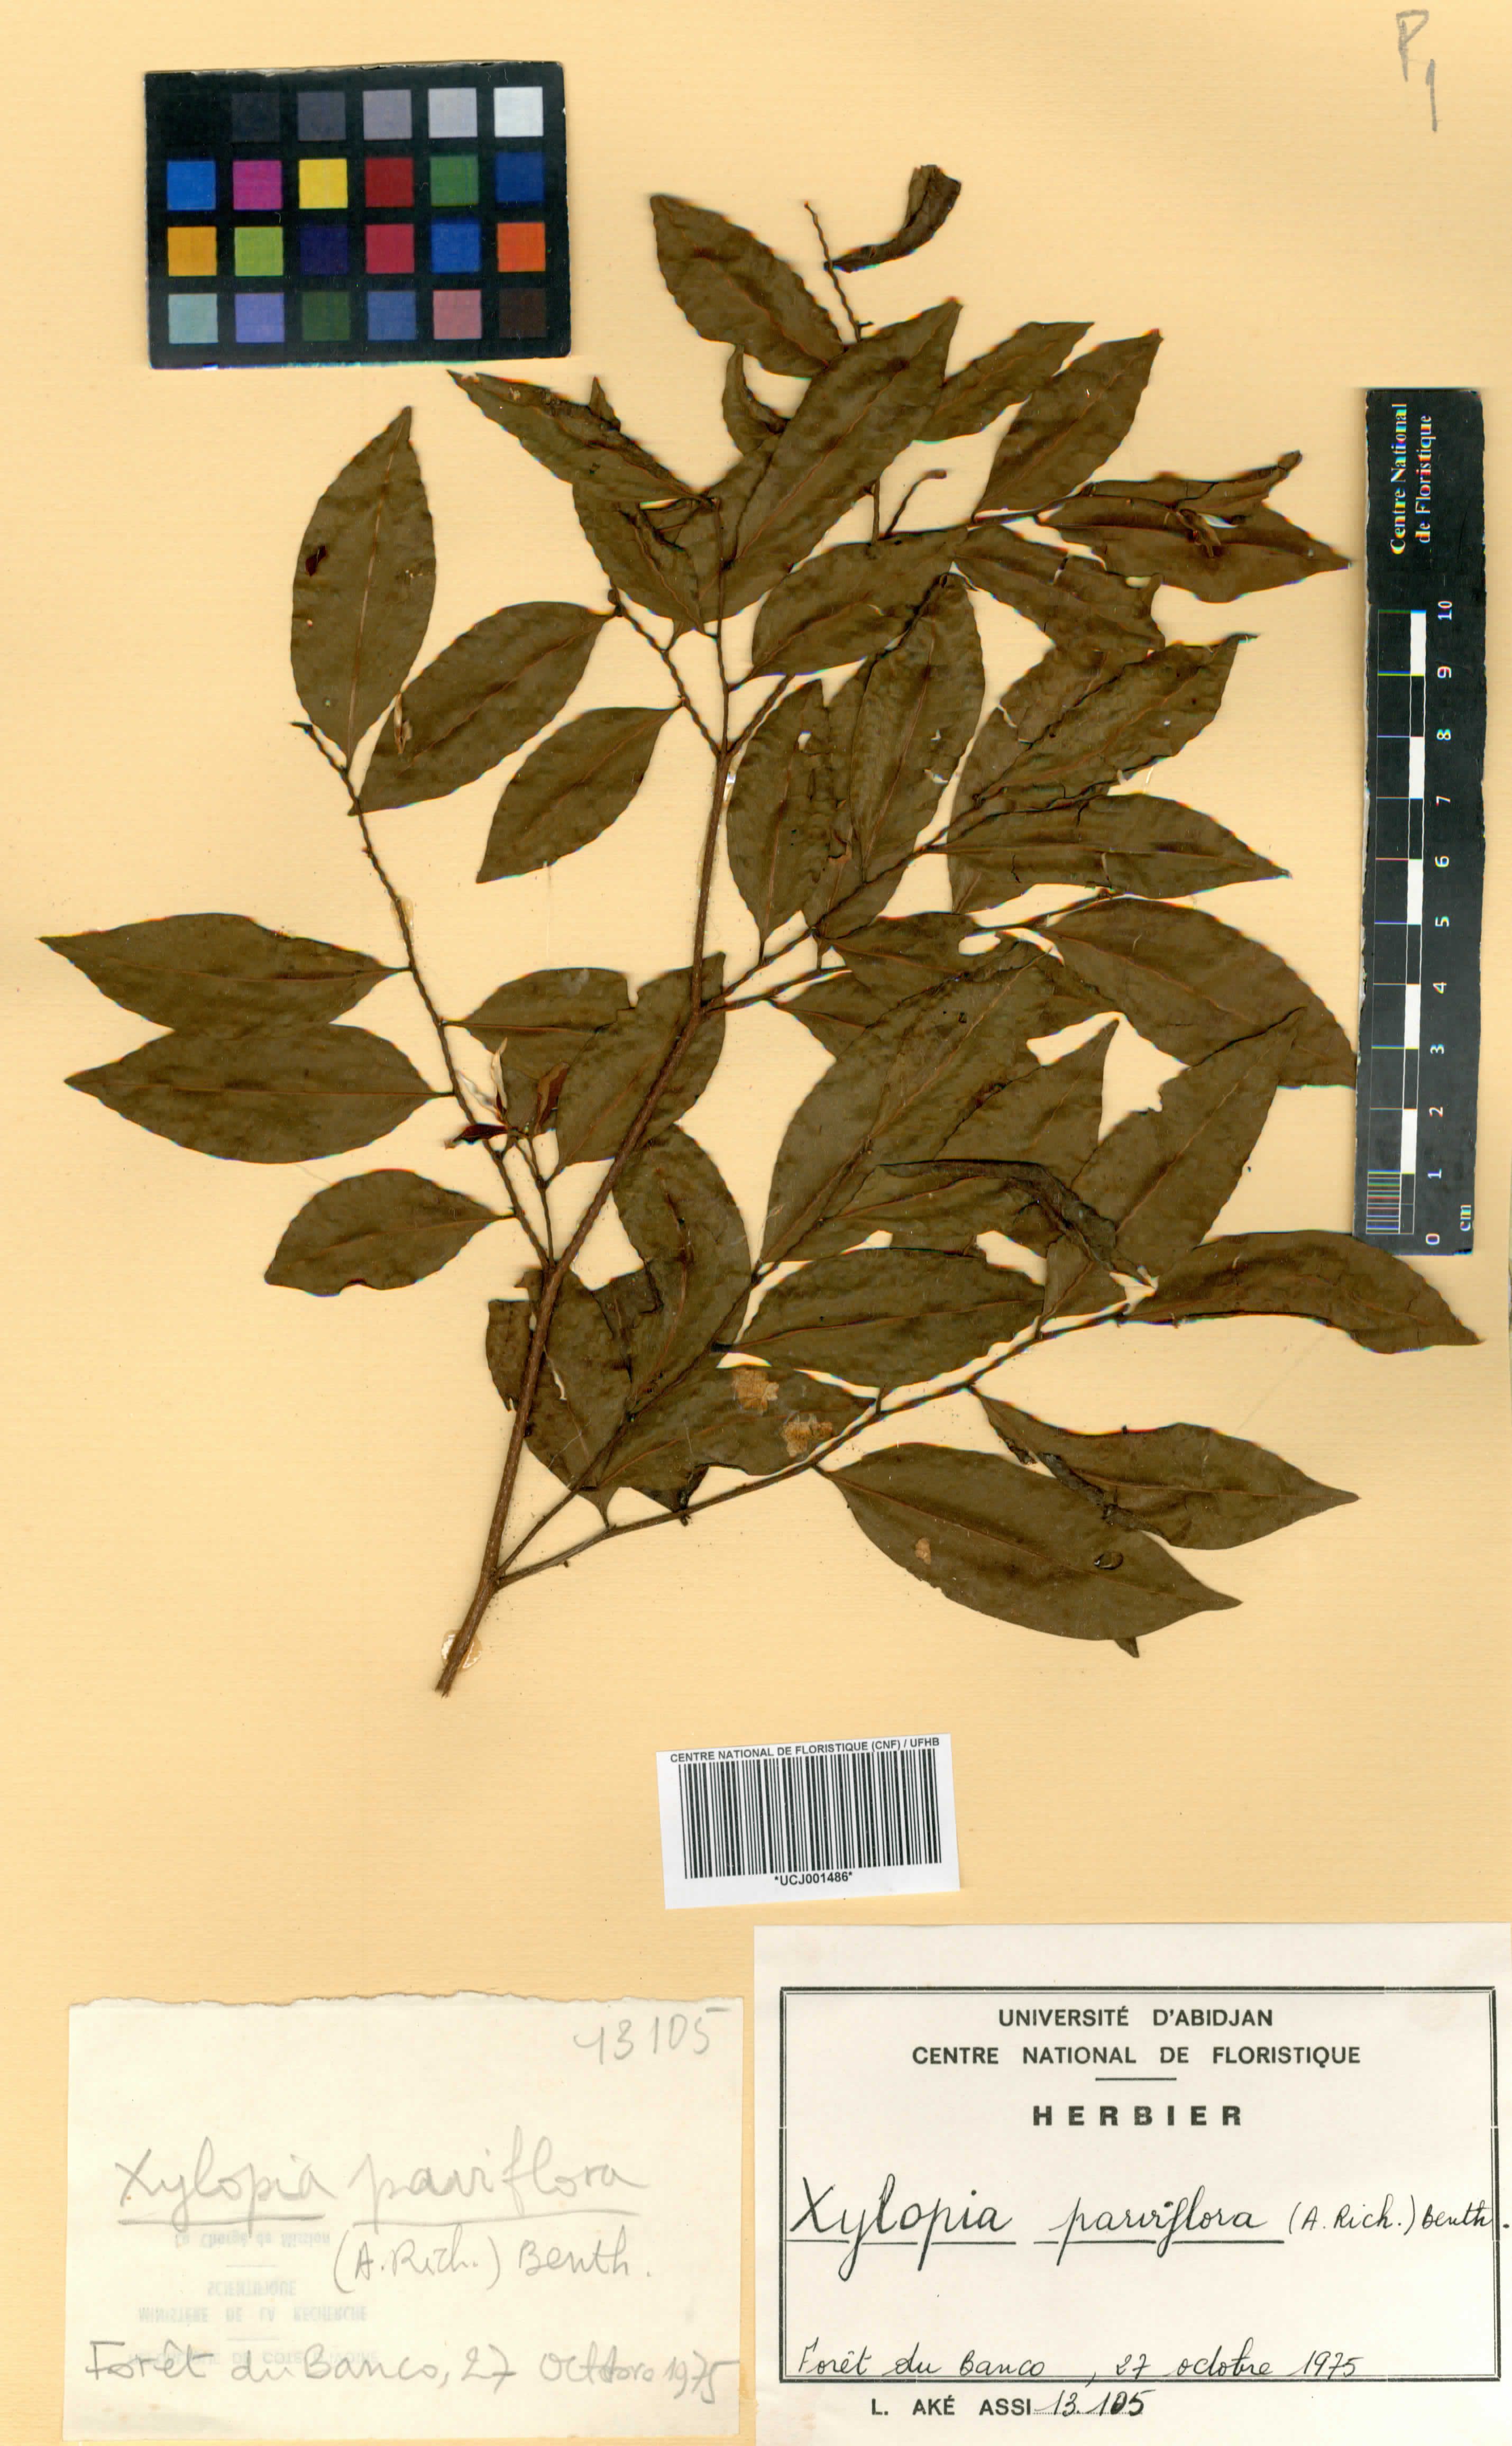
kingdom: Plantae
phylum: Tracheophyta
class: Magnoliopsida
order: Magnoliales
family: Annonaceae
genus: Xylopia
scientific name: Xylopia parviflora
